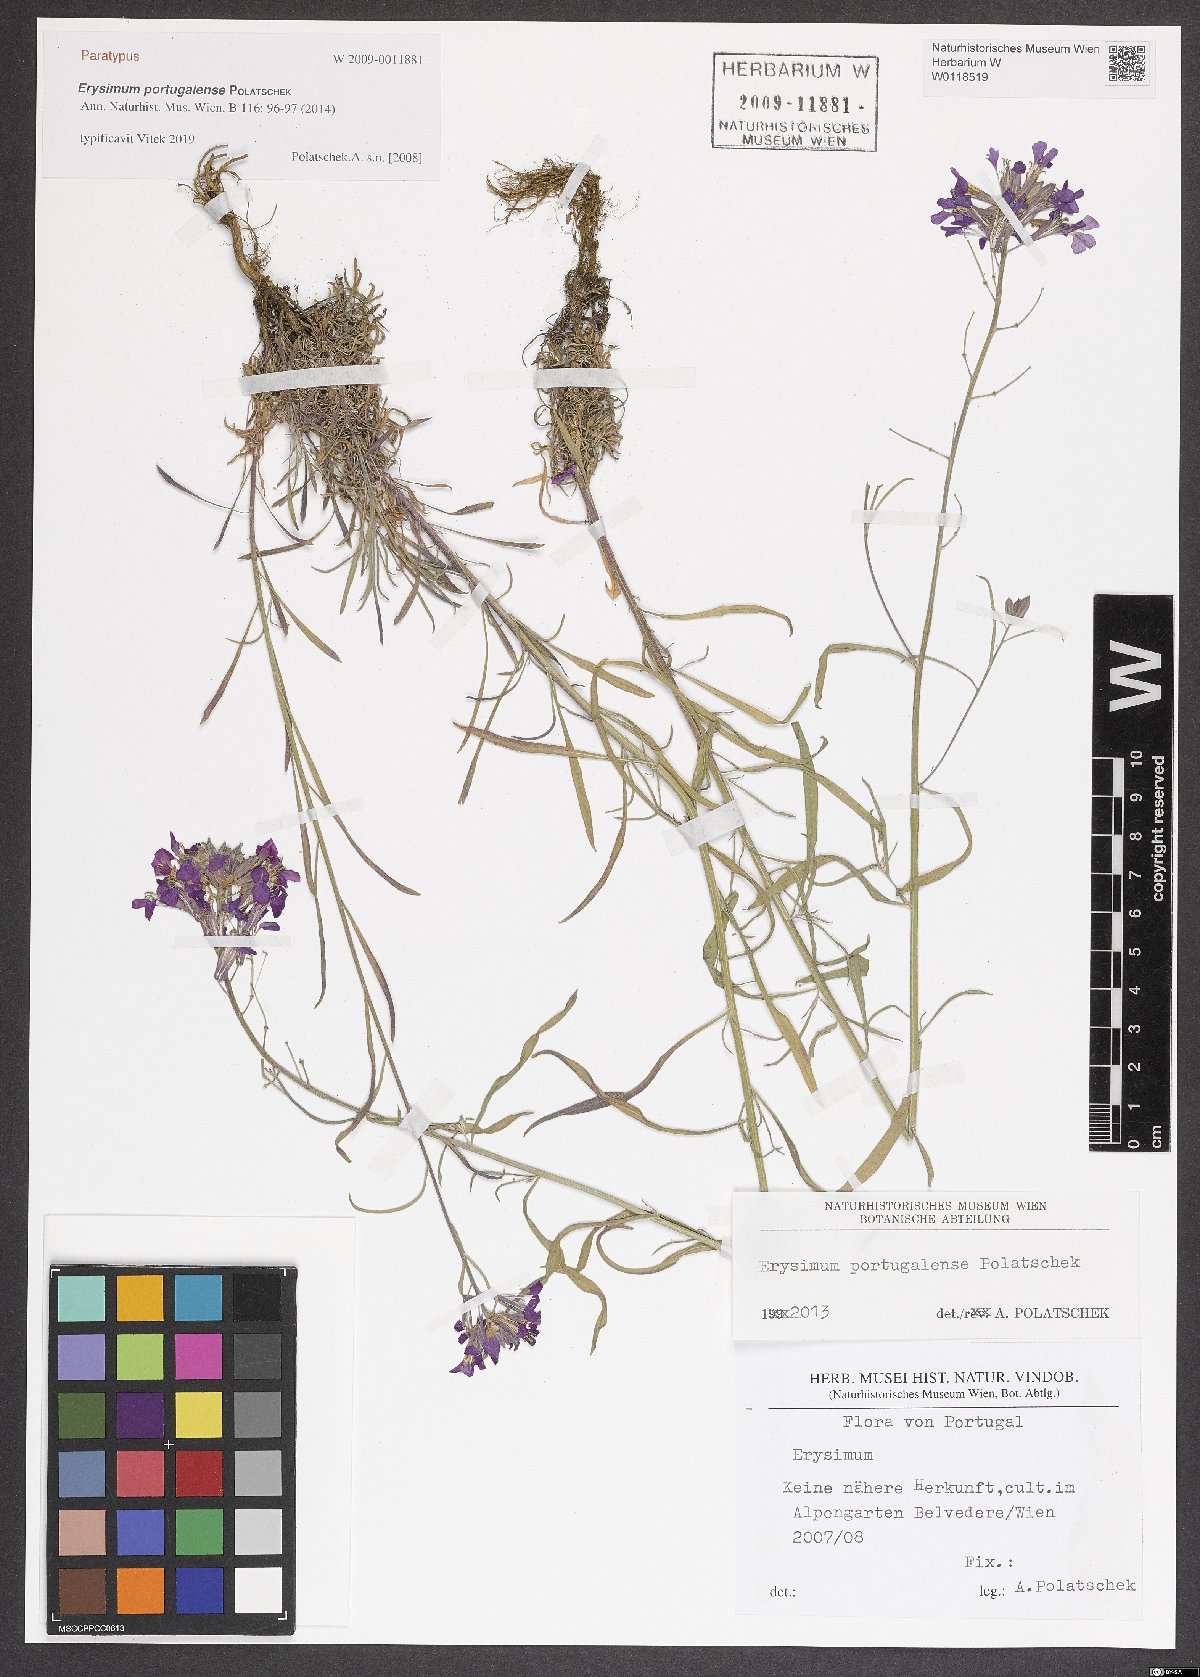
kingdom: Plantae
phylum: Tracheophyta
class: Magnoliopsida
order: Brassicales
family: Brassicaceae
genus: Erysimum
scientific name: Erysimum portugalense
